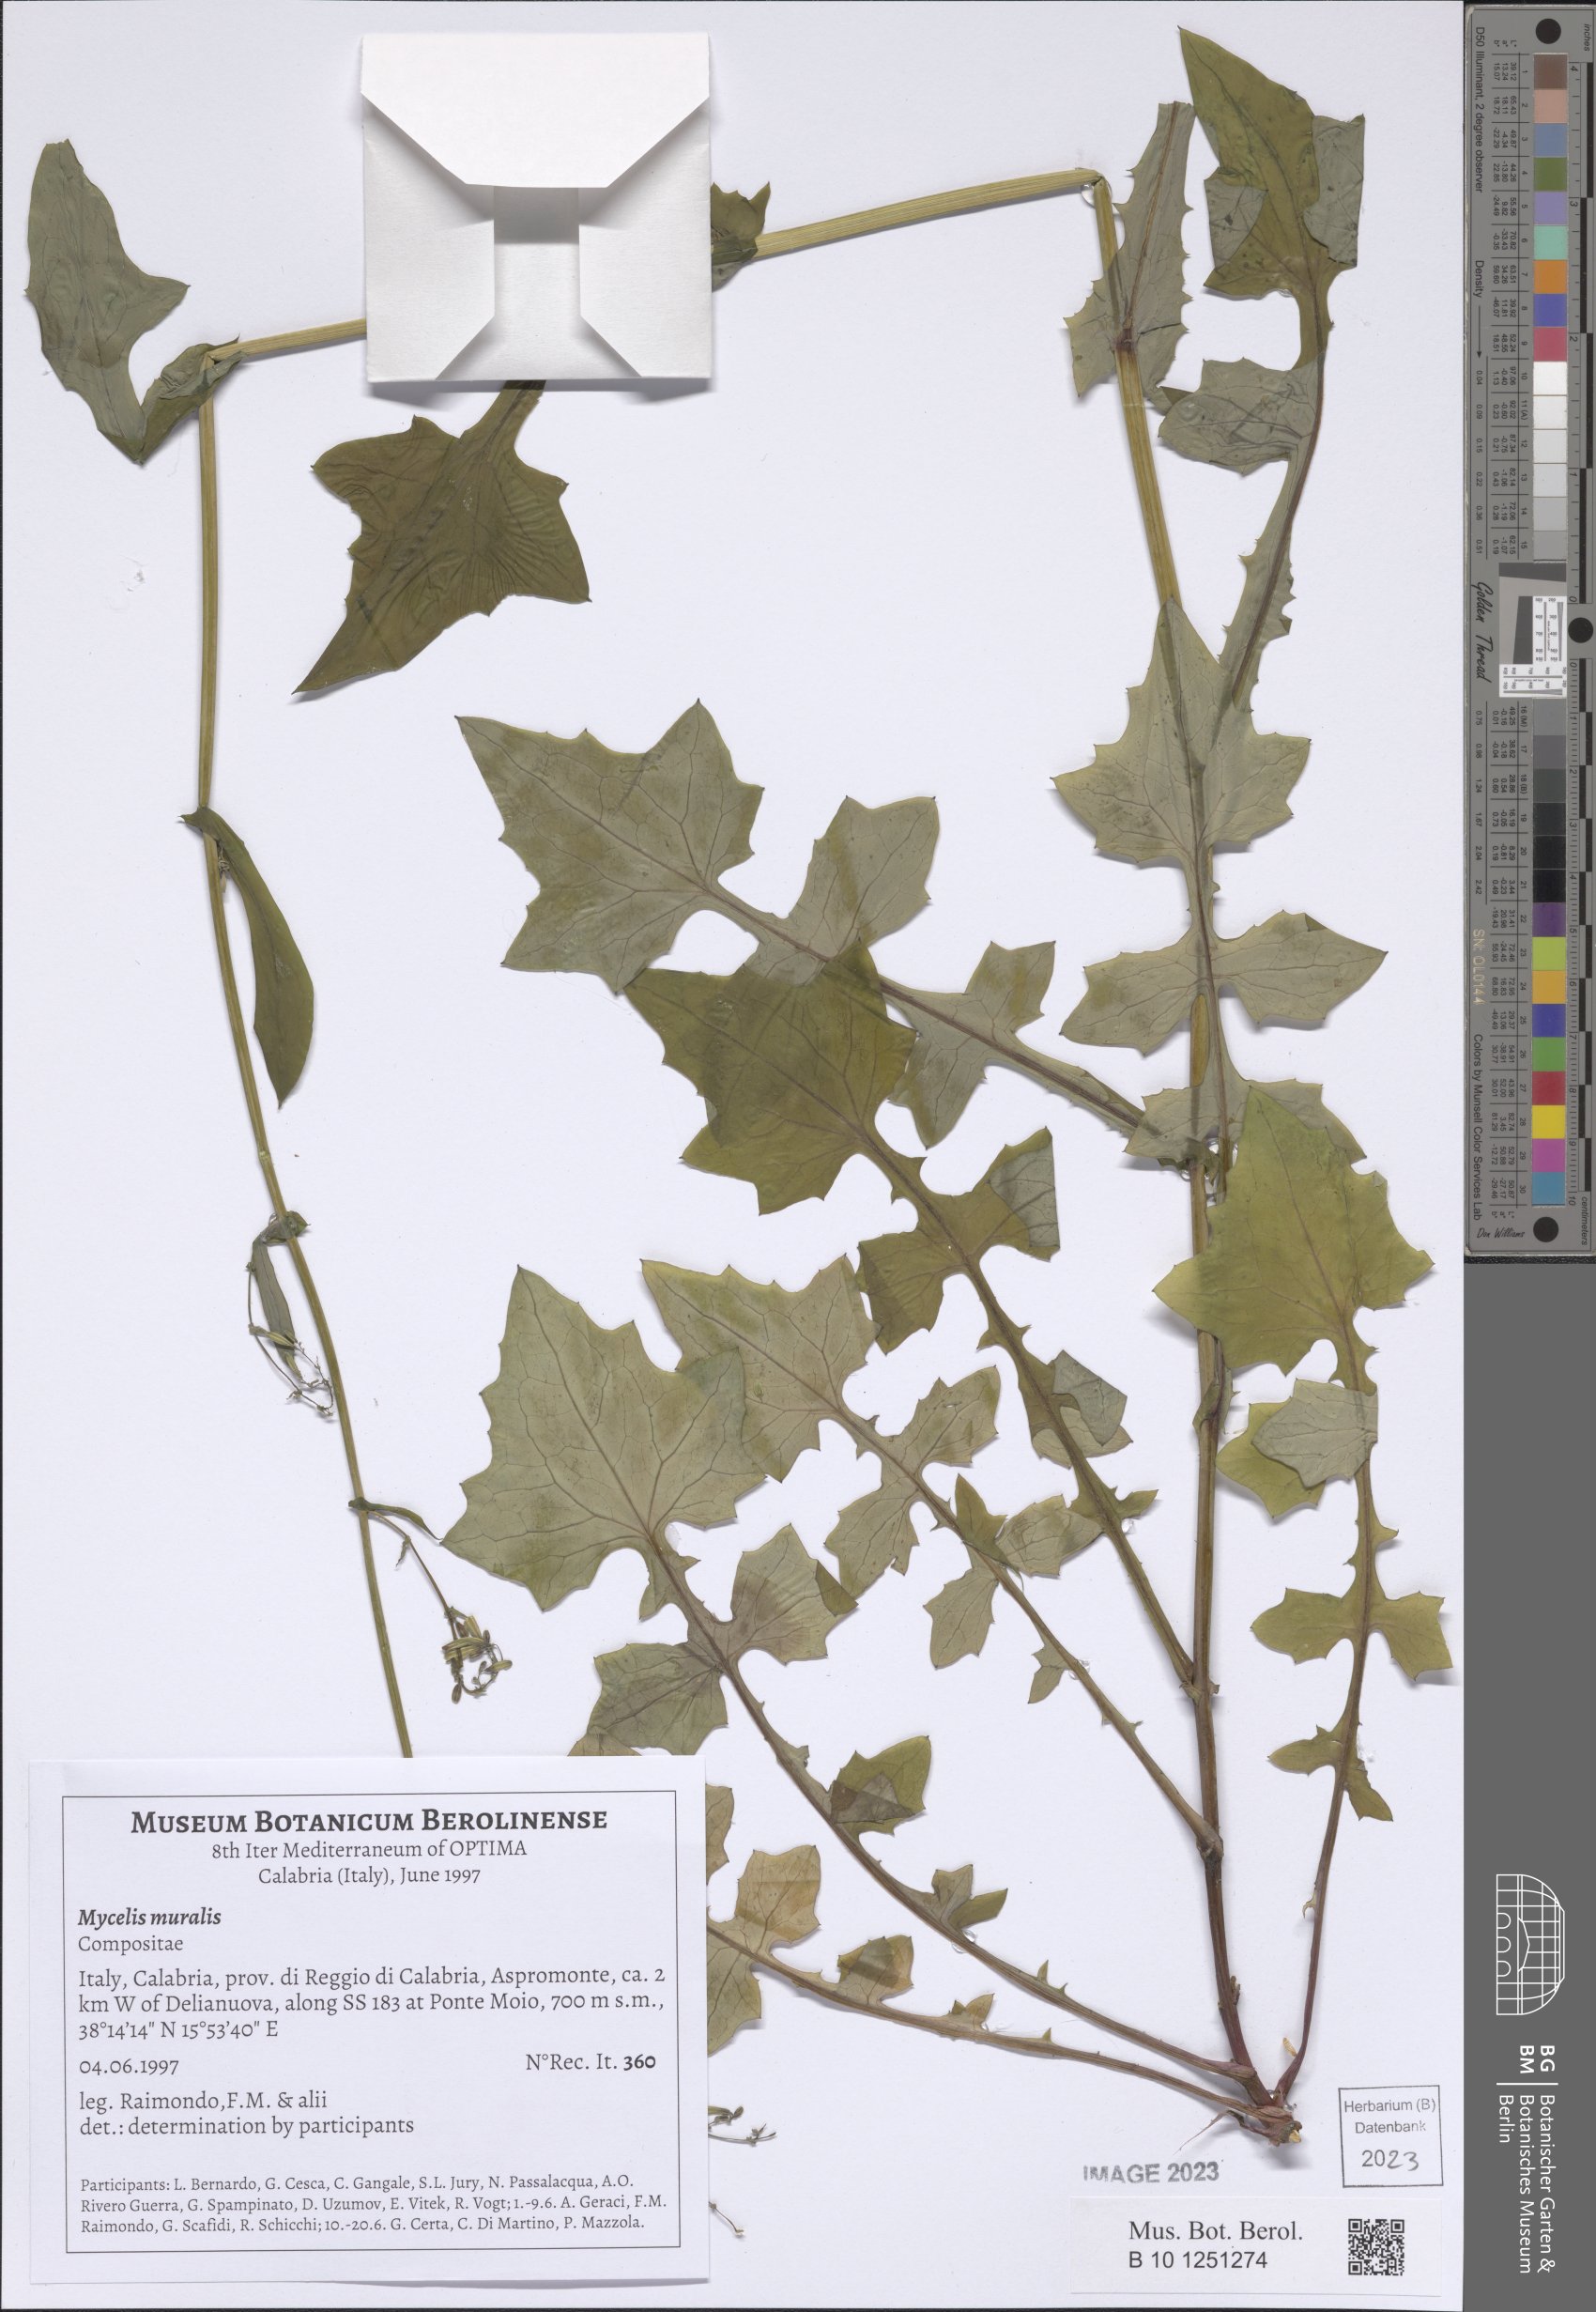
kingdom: Plantae
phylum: Tracheophyta
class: Magnoliopsida
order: Asterales
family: Asteraceae
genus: Mycelis
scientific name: Mycelis muralis
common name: Wall lettuce
